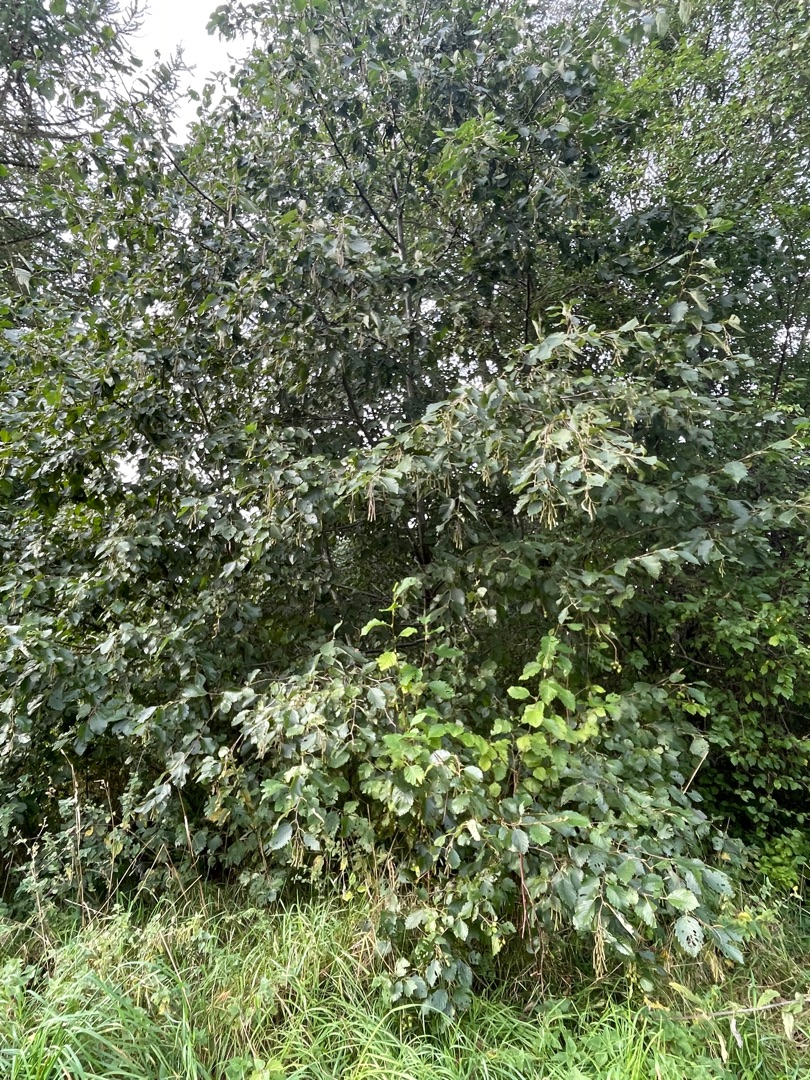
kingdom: Plantae
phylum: Tracheophyta
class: Magnoliopsida
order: Fagales
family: Betulaceae
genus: Alnus
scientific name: Alnus incana
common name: Grå-el/hvid-el
